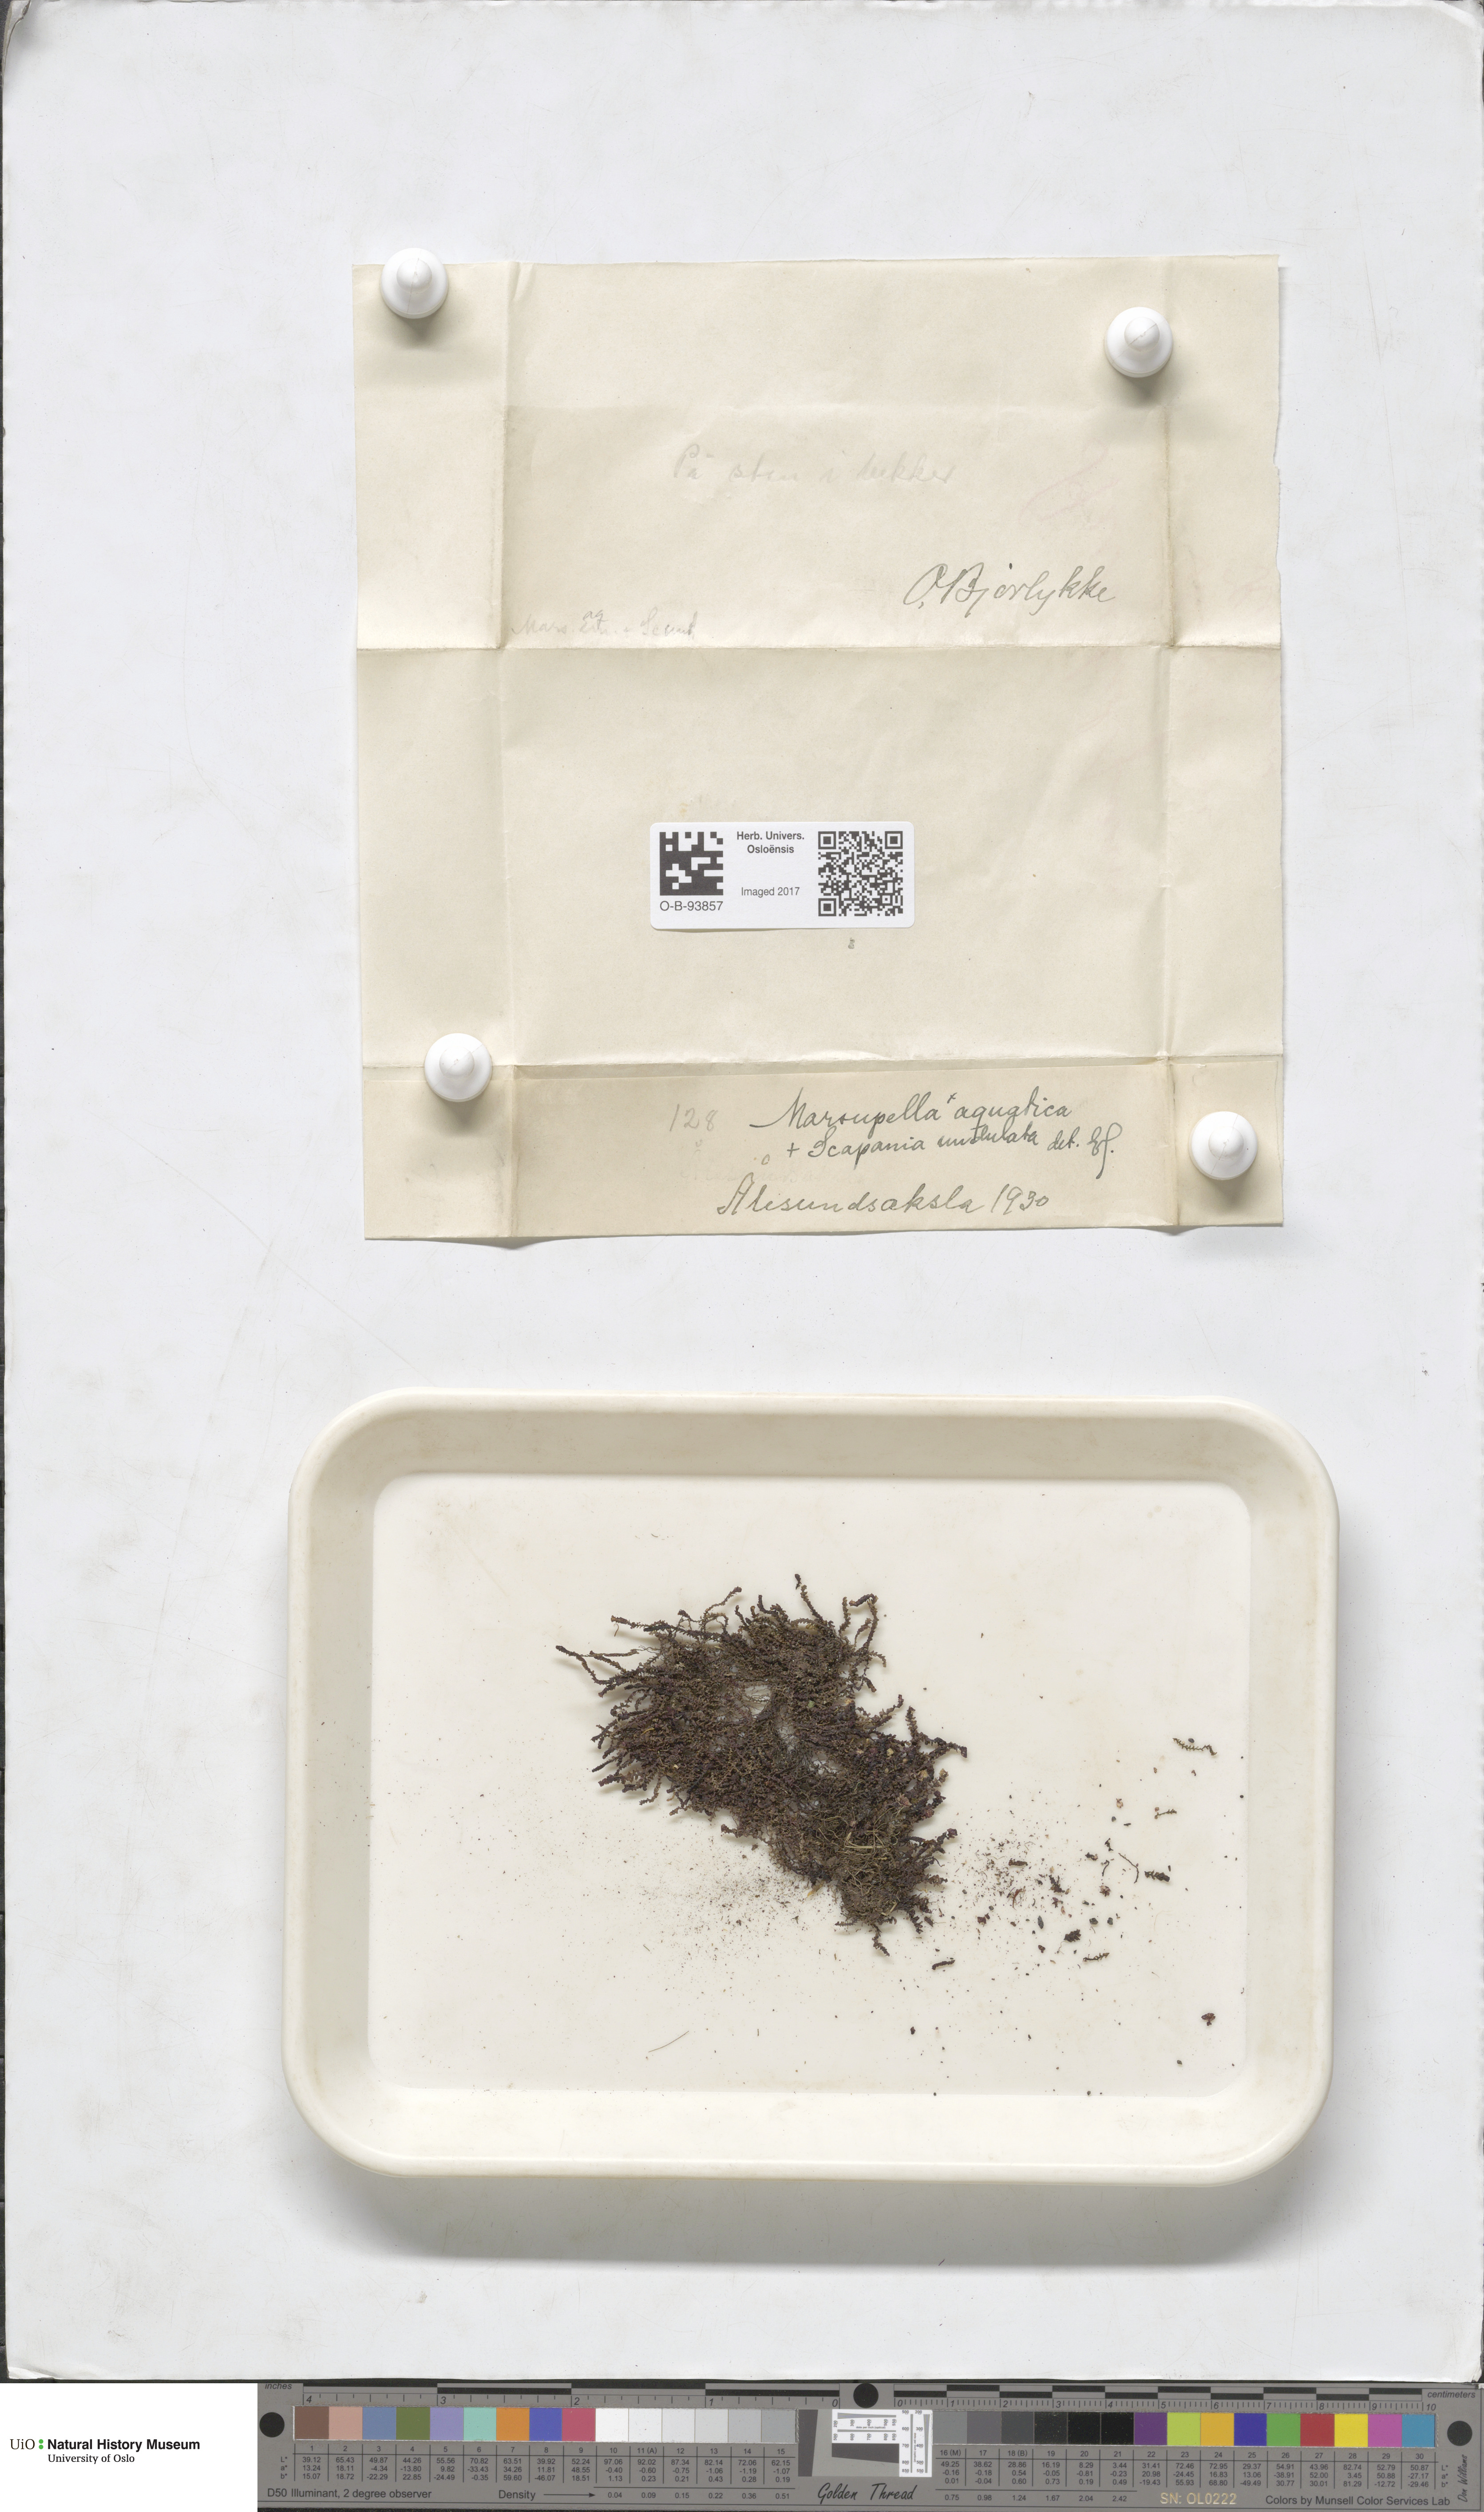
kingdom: Plantae
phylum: Marchantiophyta
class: Jungermanniopsida
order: Jungermanniales
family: Gymnomitriaceae
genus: Marsupella
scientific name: Marsupella emarginata
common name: Notched rustwort
